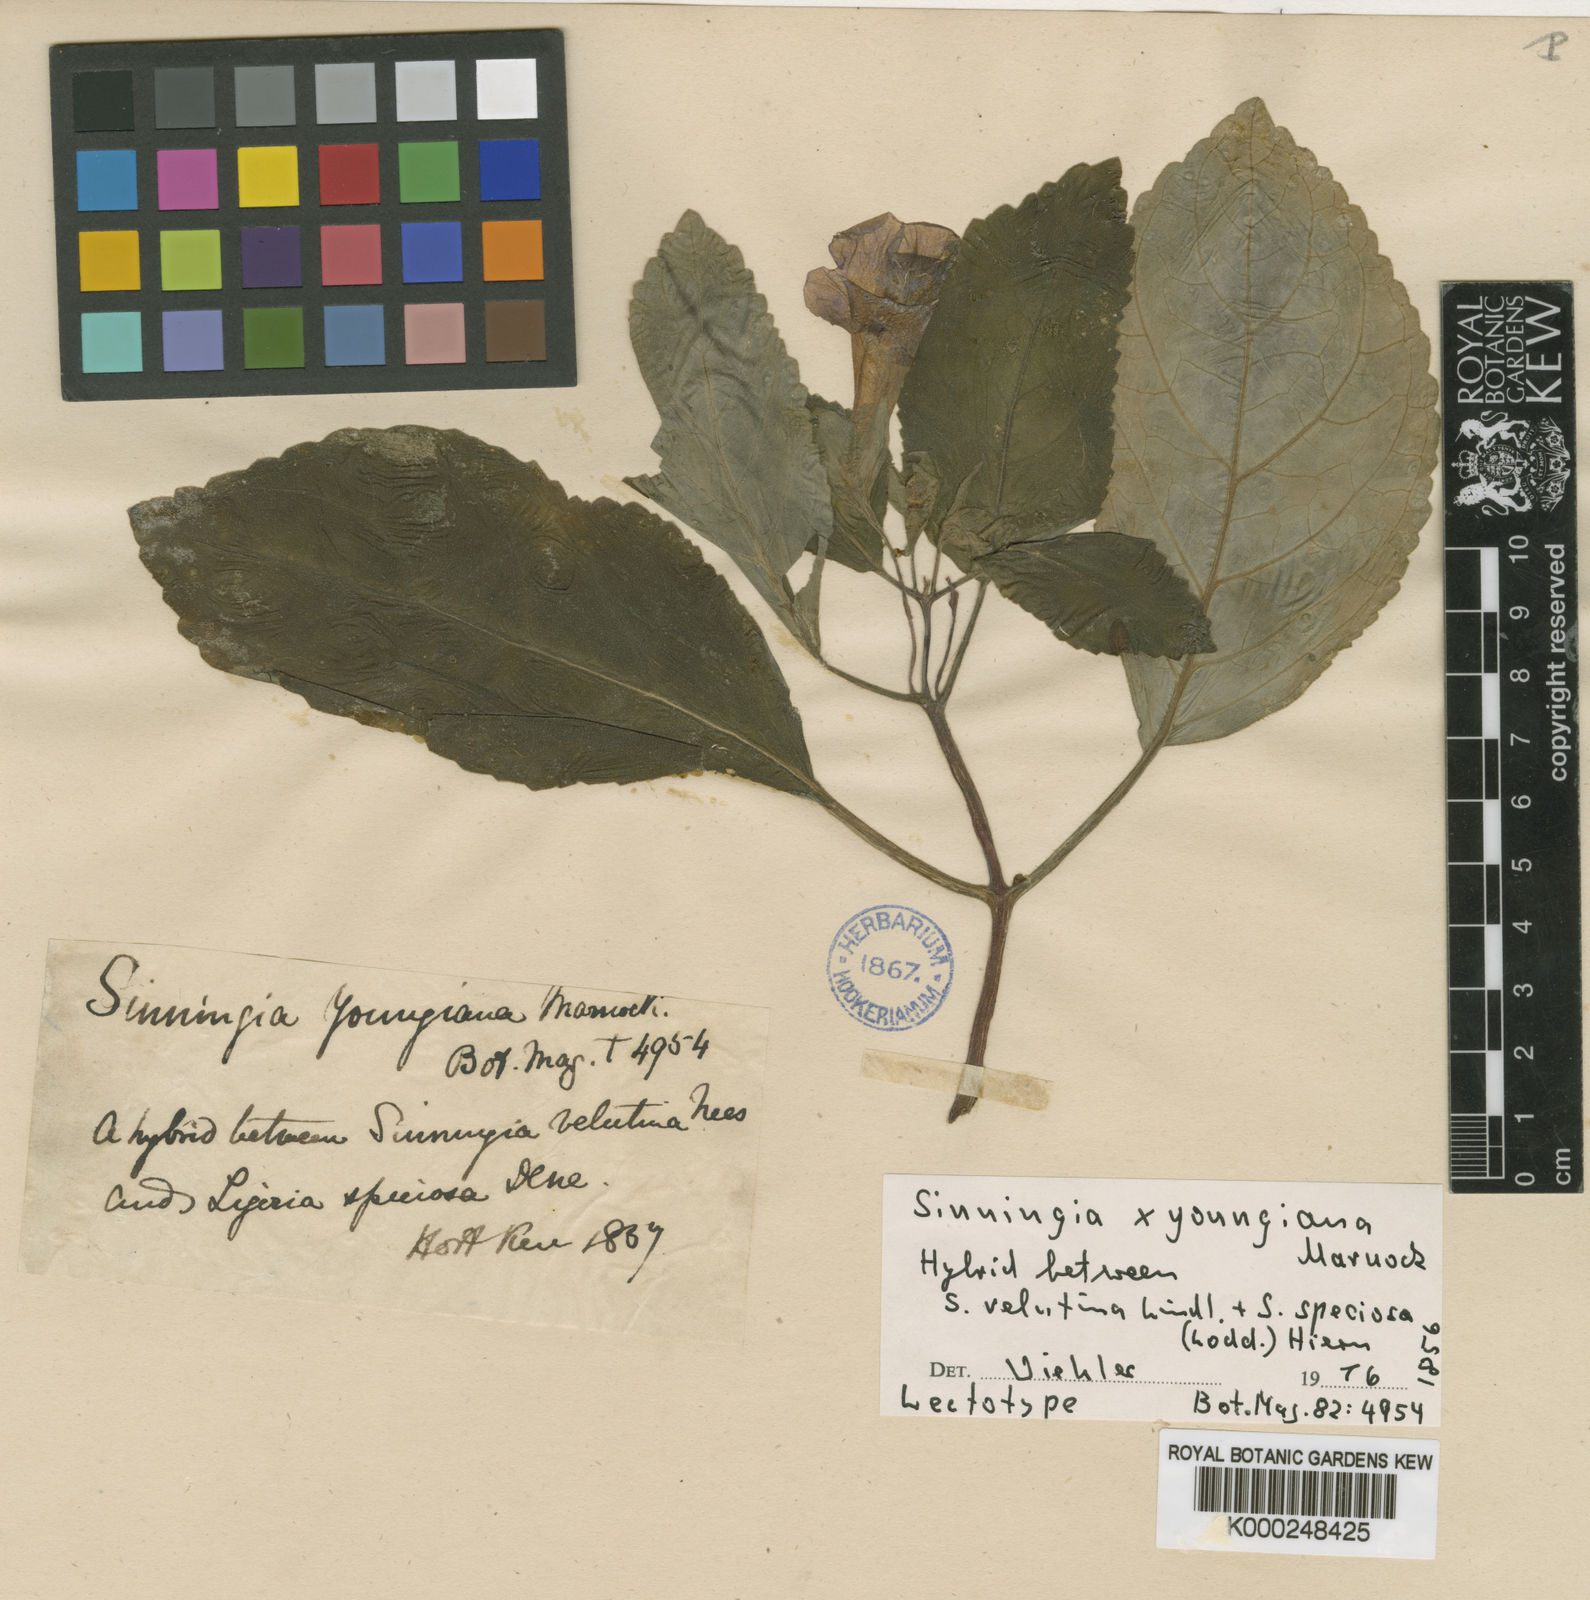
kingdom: Plantae
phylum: Tracheophyta
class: Magnoliopsida
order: Lamiales
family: Gesneriaceae
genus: Sinningia
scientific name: Sinningia
